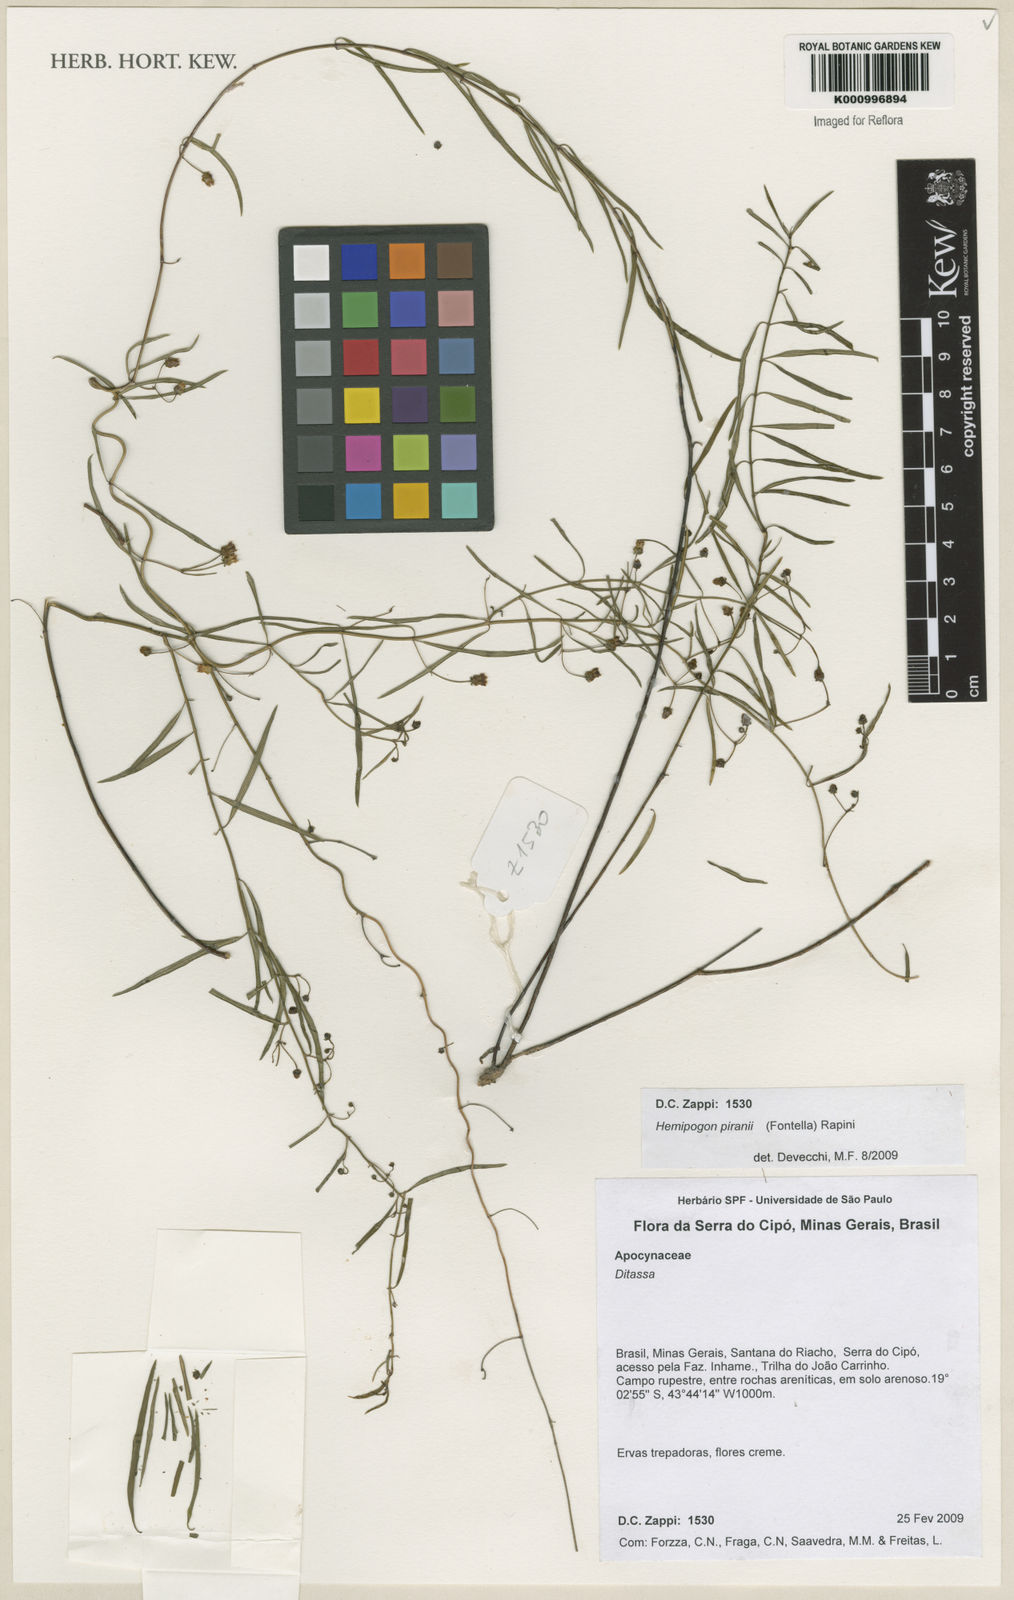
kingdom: Plantae
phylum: Tracheophyta
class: Magnoliopsida
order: Gentianales
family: Apocynaceae
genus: Morilloa
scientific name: Morilloa piranii
